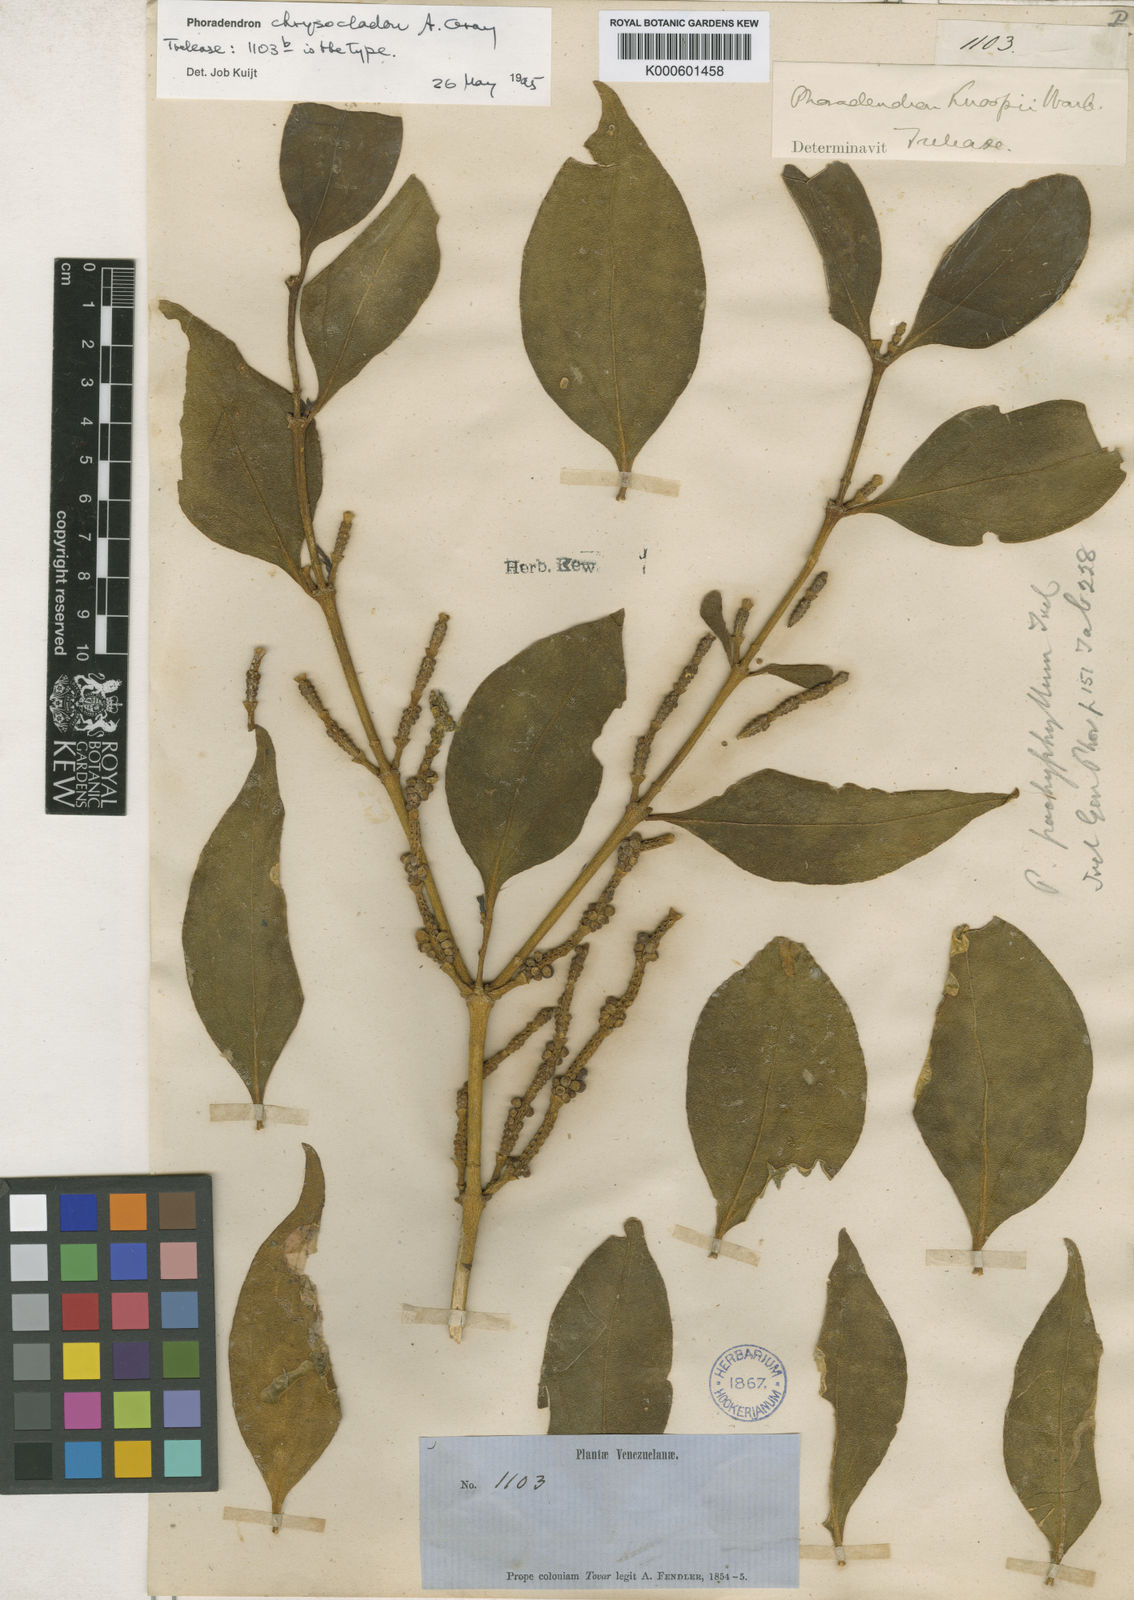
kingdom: Plantae
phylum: Tracheophyta
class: Magnoliopsida
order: Santalales
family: Viscaceae
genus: Phoradendron
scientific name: Phoradendron chrysocladon
